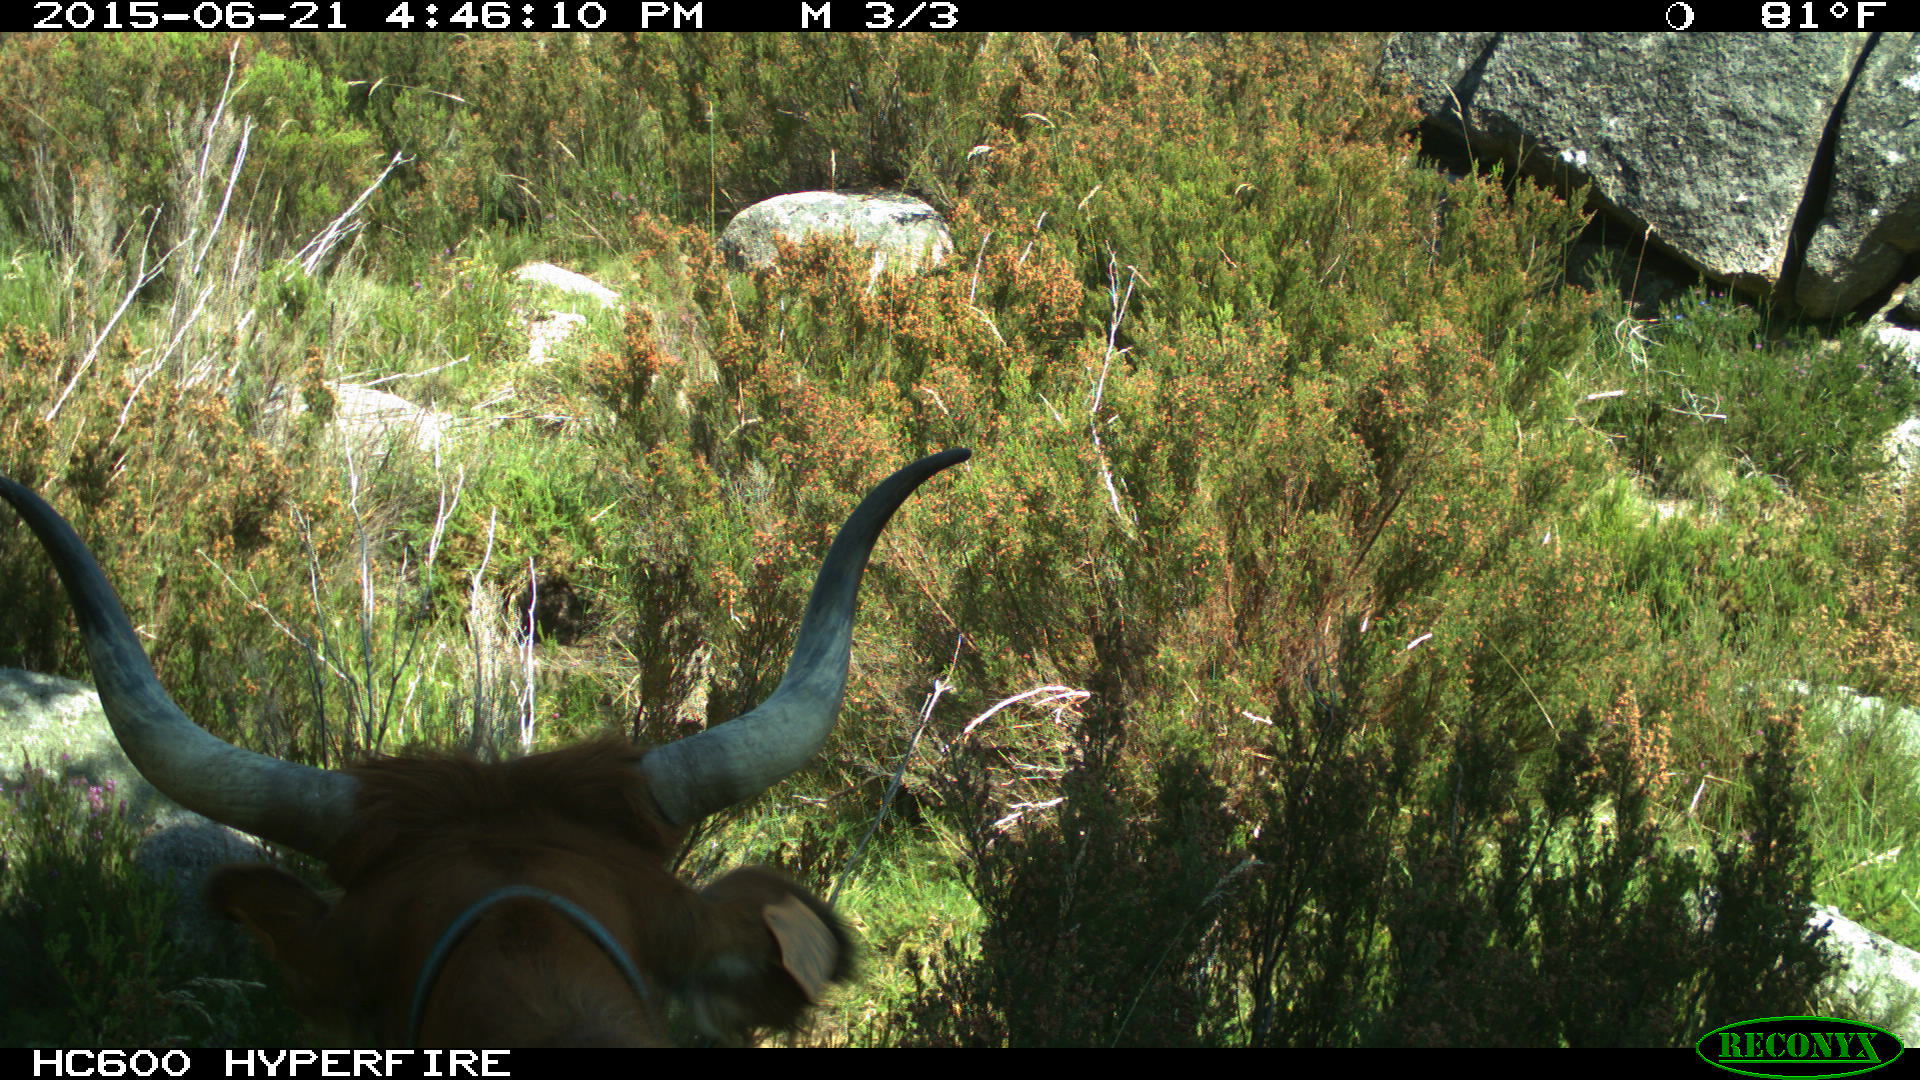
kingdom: Animalia
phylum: Chordata
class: Mammalia
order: Artiodactyla
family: Bovidae
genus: Bos
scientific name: Bos taurus
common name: Domesticated cattle
